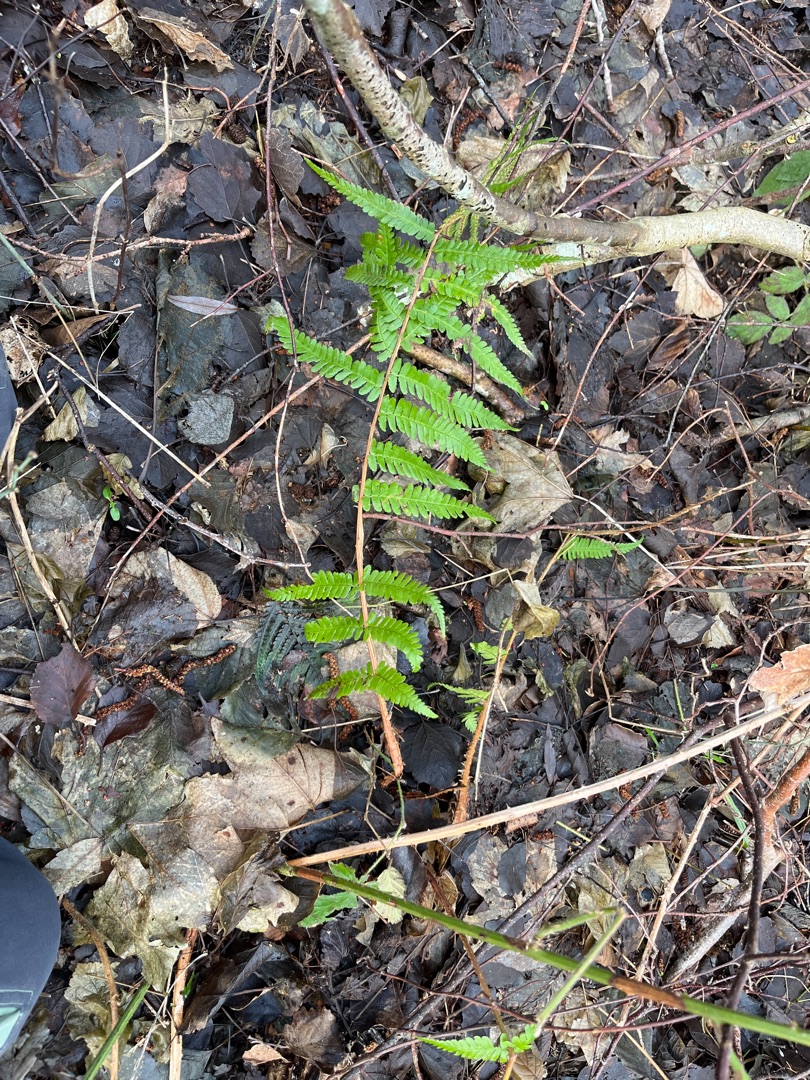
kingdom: Plantae
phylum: Tracheophyta
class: Polypodiopsida
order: Polypodiales
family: Dryopteridaceae
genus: Dryopteris
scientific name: Dryopteris filix-mas
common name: Almindelig mangeløv
